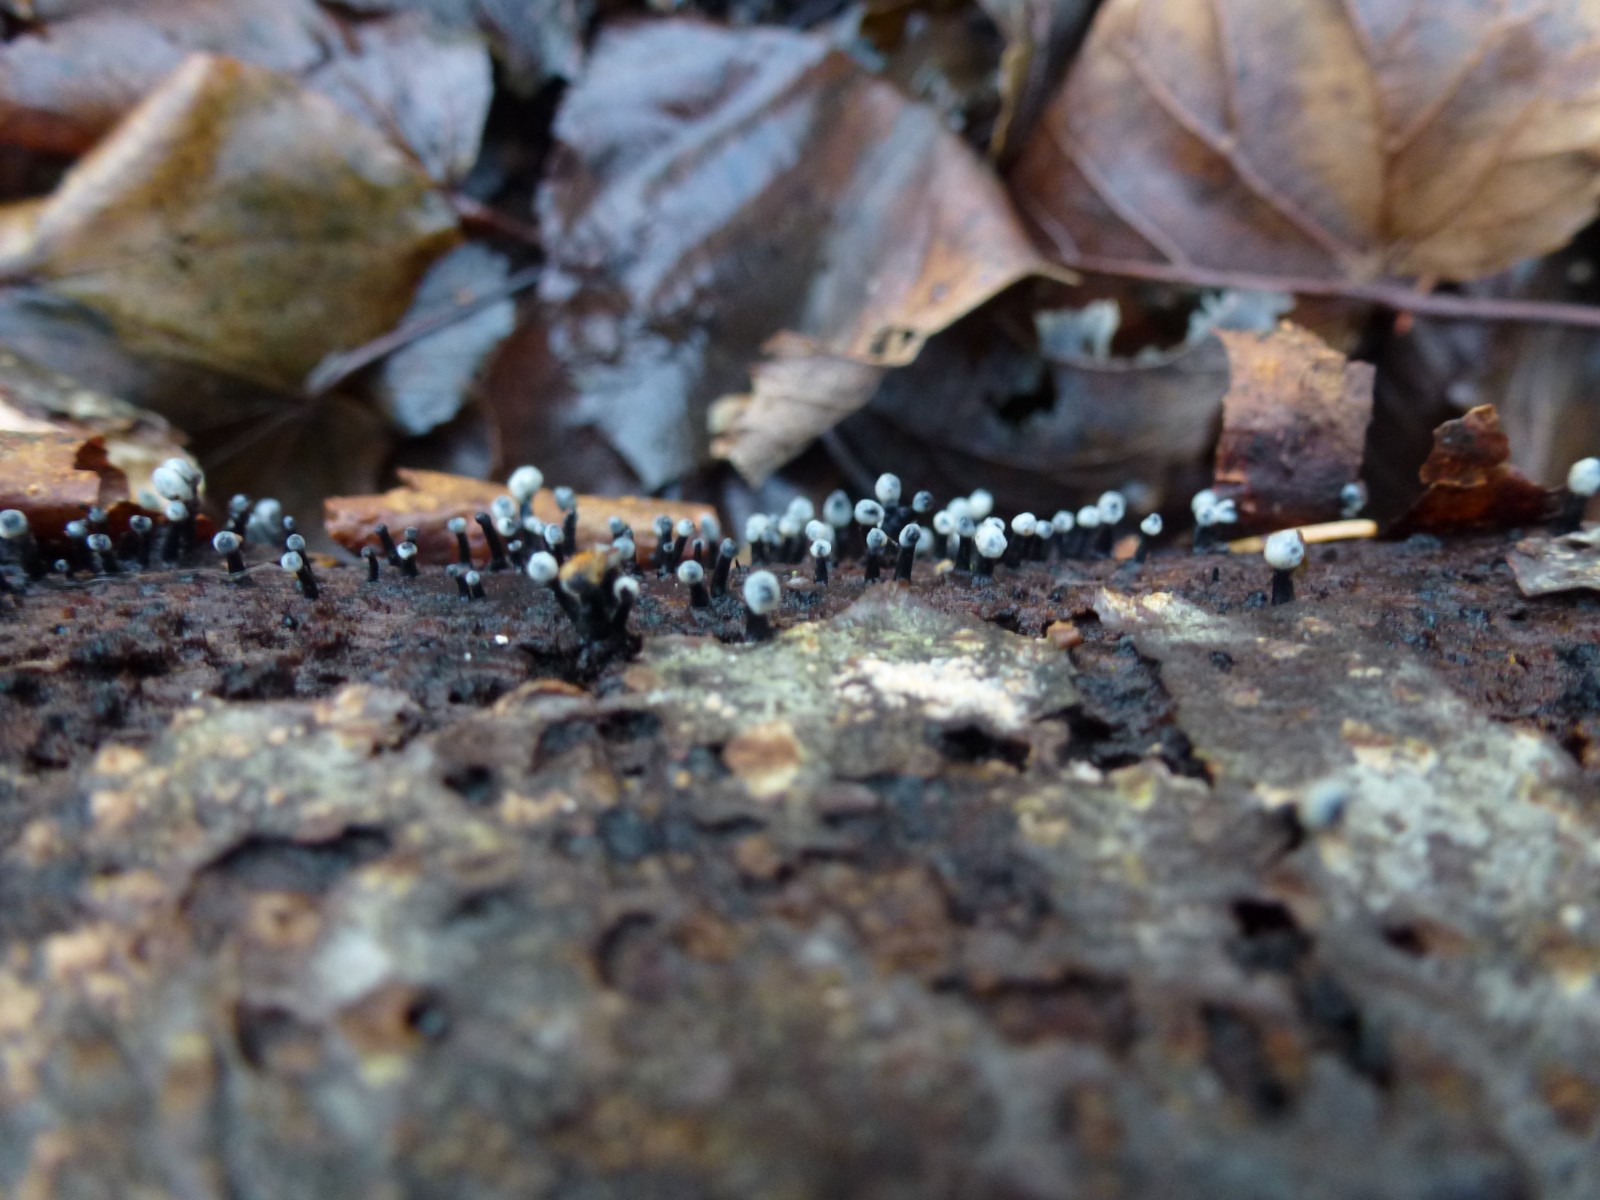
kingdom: Fungi
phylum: Ascomycota
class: Leotiomycetes
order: Helotiales
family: Bulgariaceae
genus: Holwaya
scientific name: Holwaya mucida
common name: lindeskive
